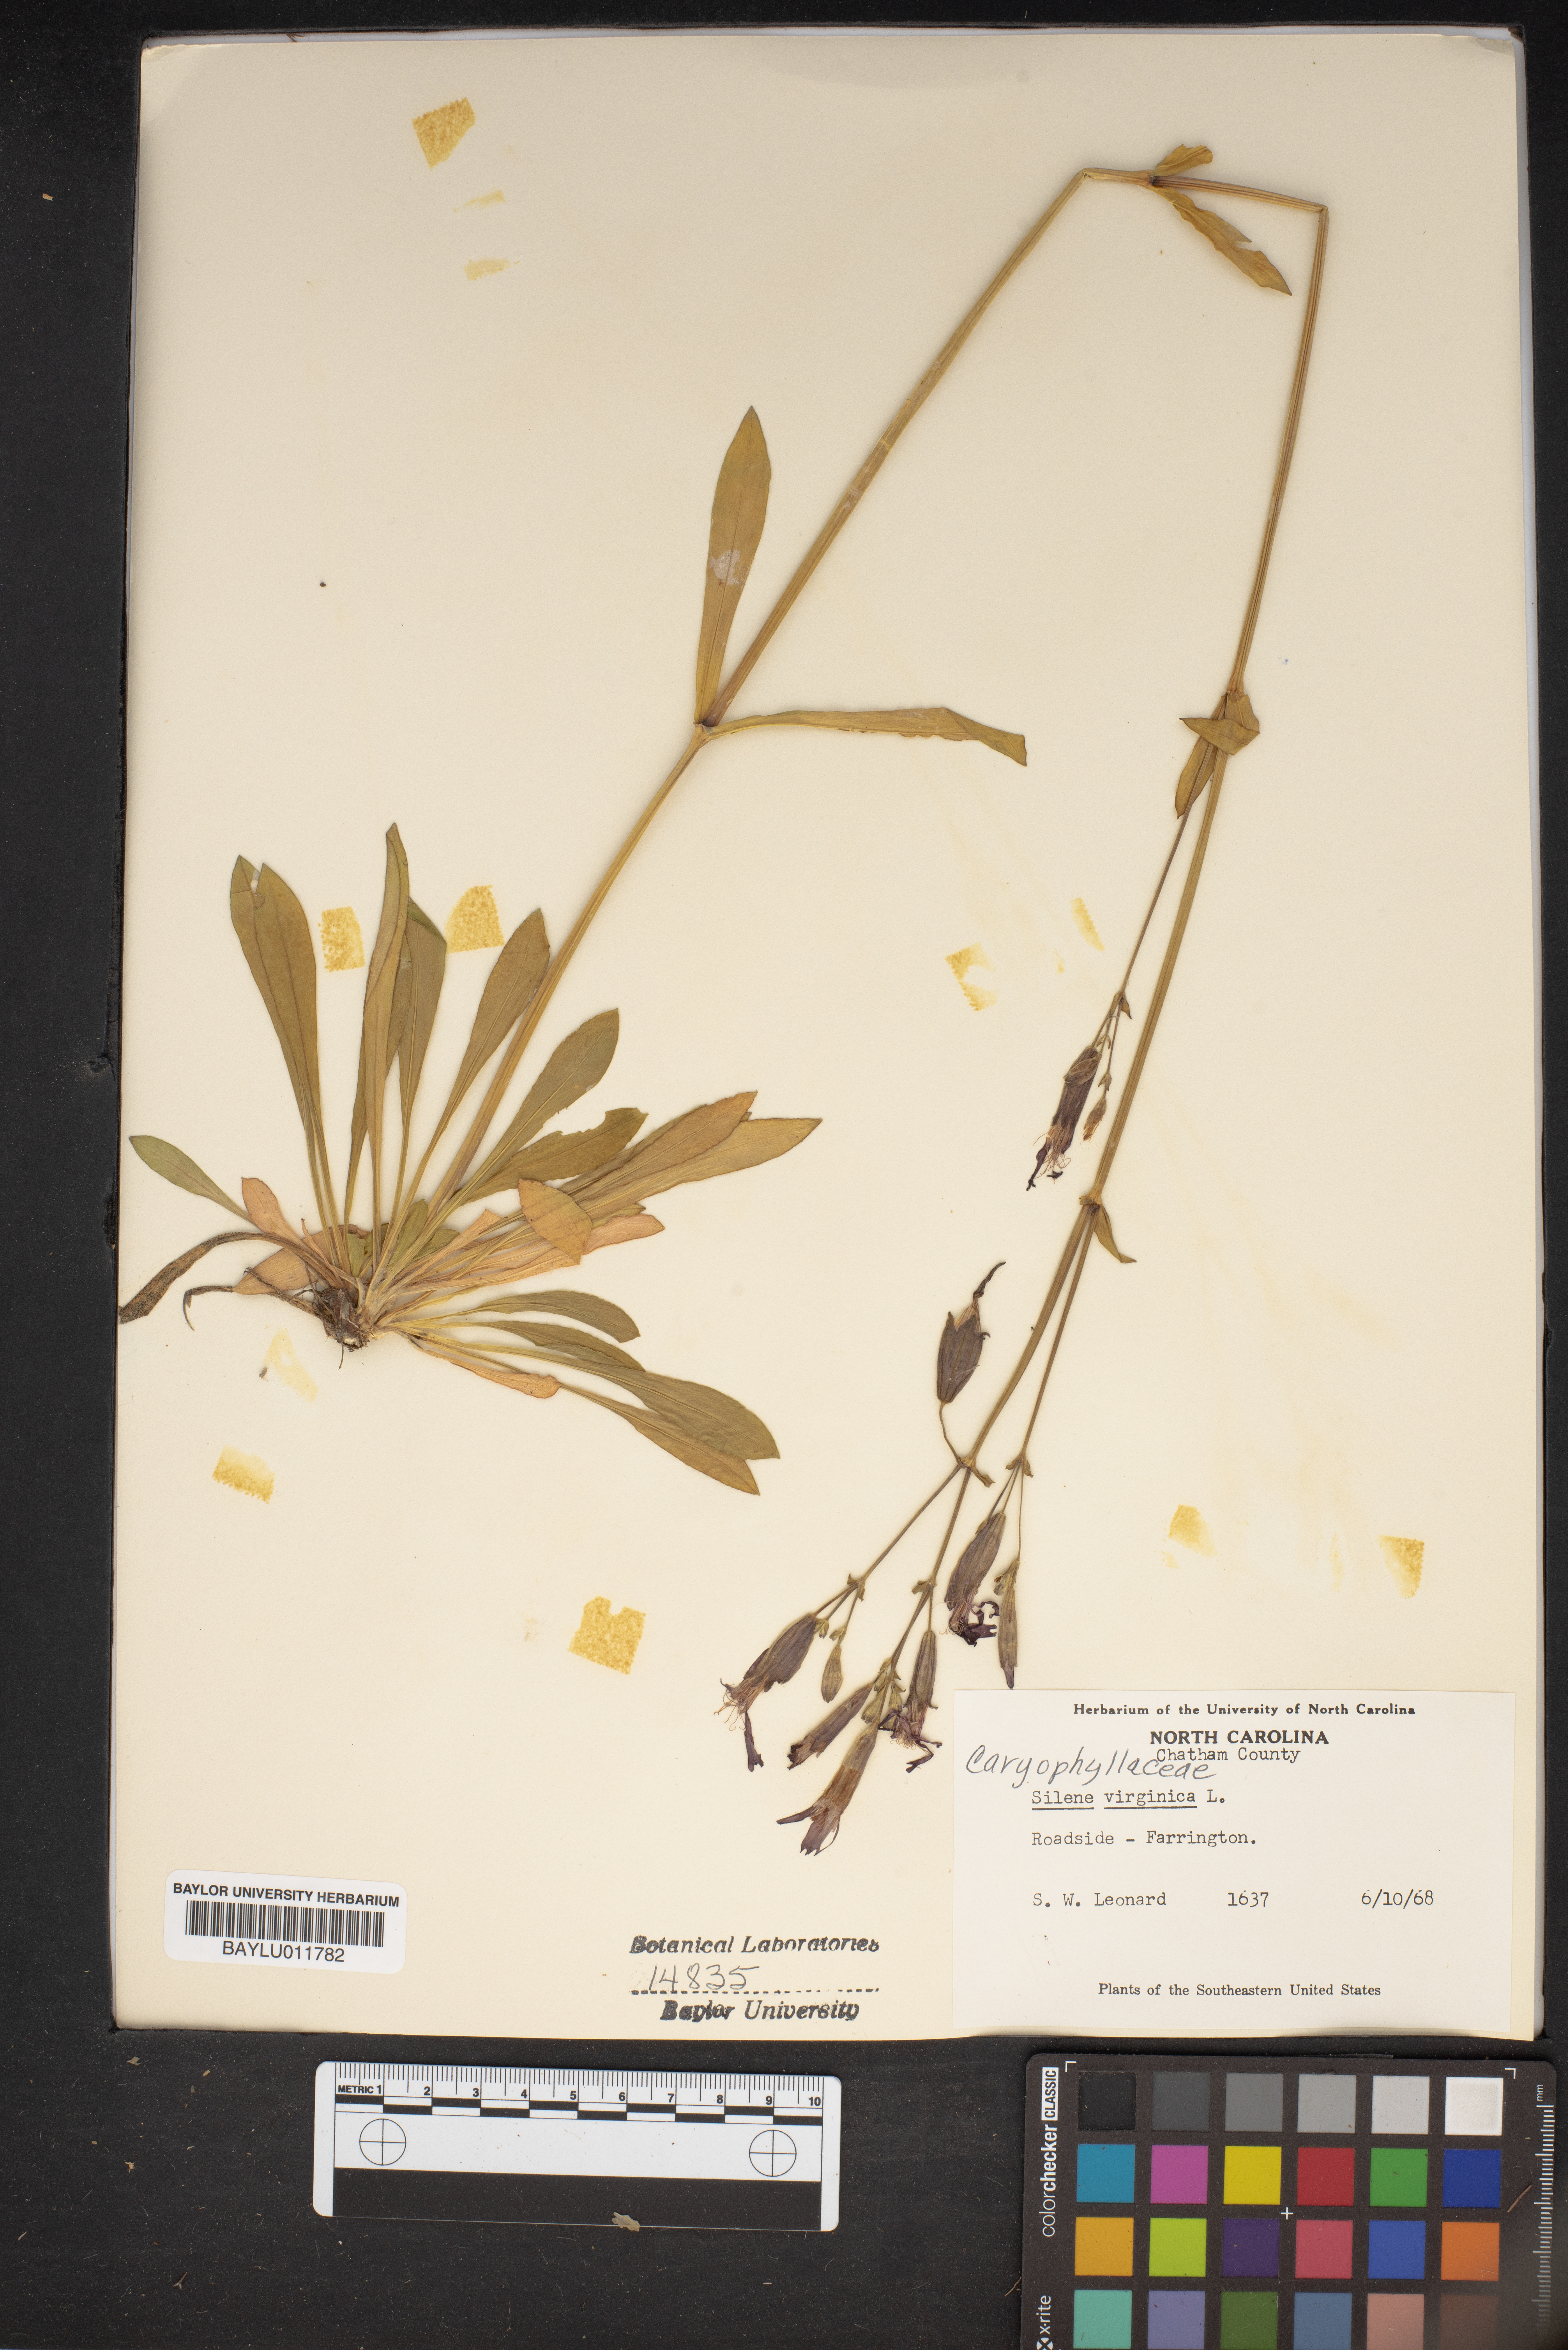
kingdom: Plantae
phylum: Tracheophyta
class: Magnoliopsida
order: Caryophyllales
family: Caryophyllaceae
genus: Silene
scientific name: Silene virginica
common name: Fire-pink
